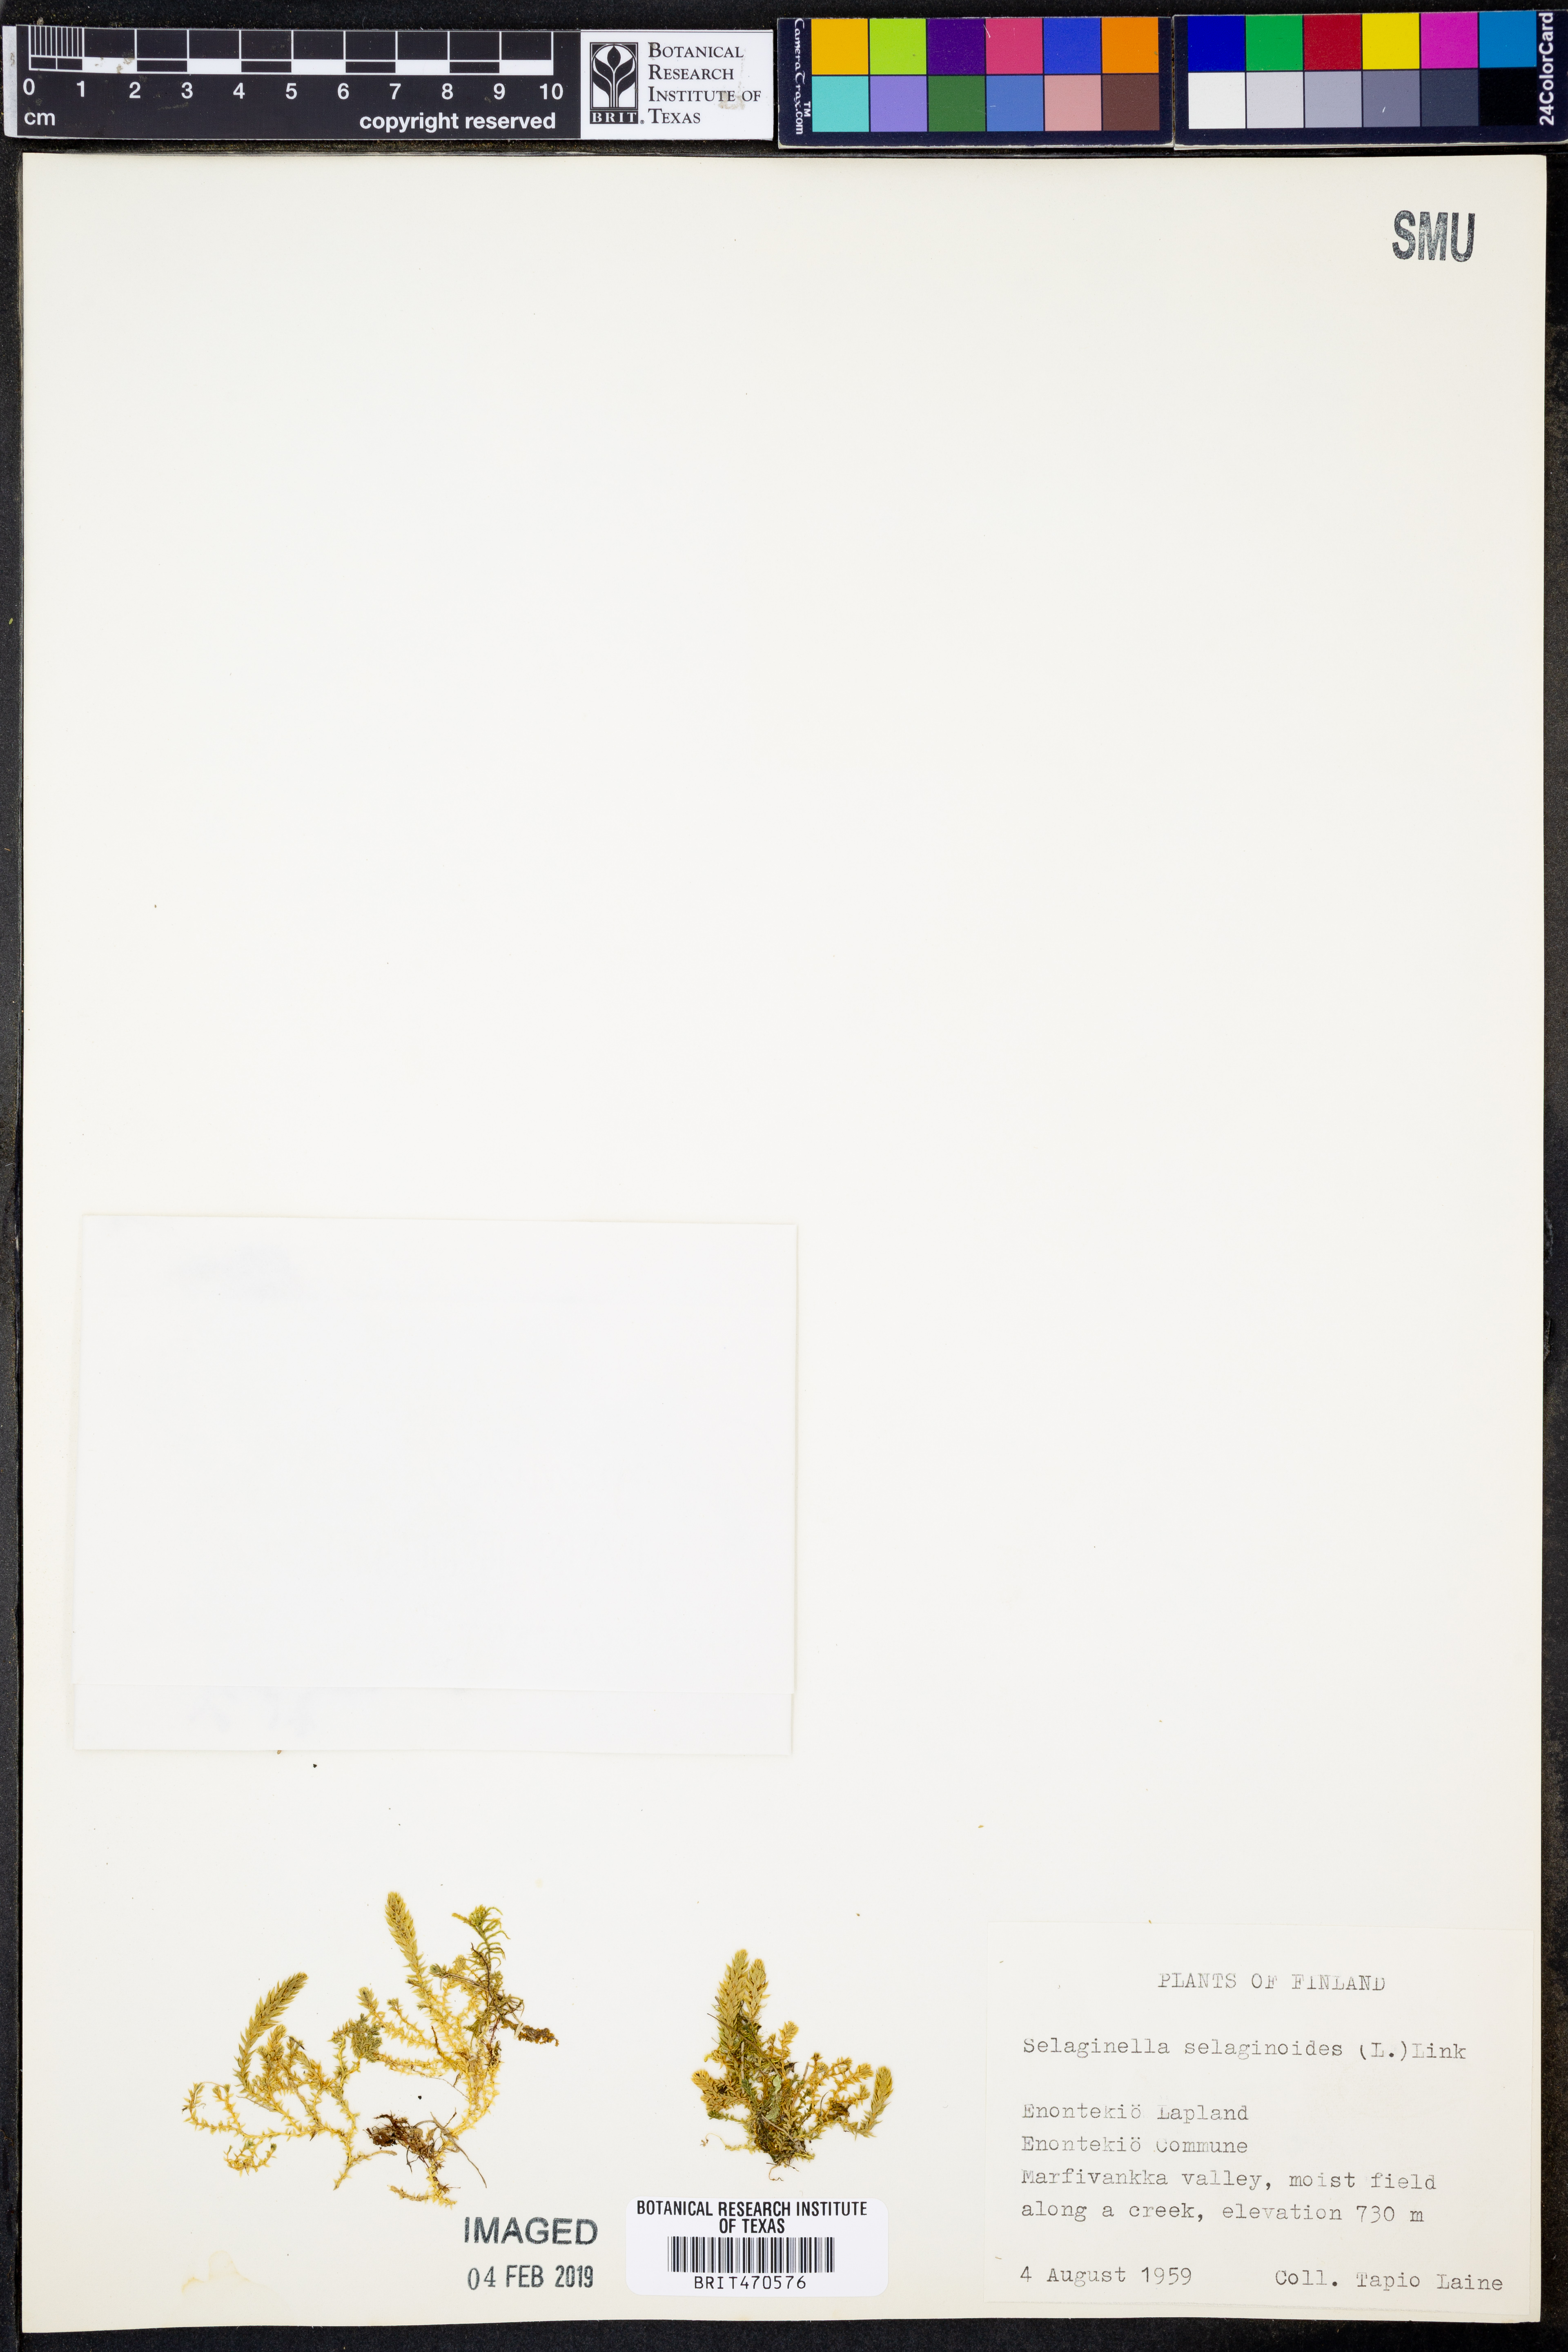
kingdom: Plantae
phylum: Tracheophyta
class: Lycopodiopsida
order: Selaginellales
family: Selaginellaceae
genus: Selaginella
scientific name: Selaginella selaginoides
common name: Prickly mountain-moss
